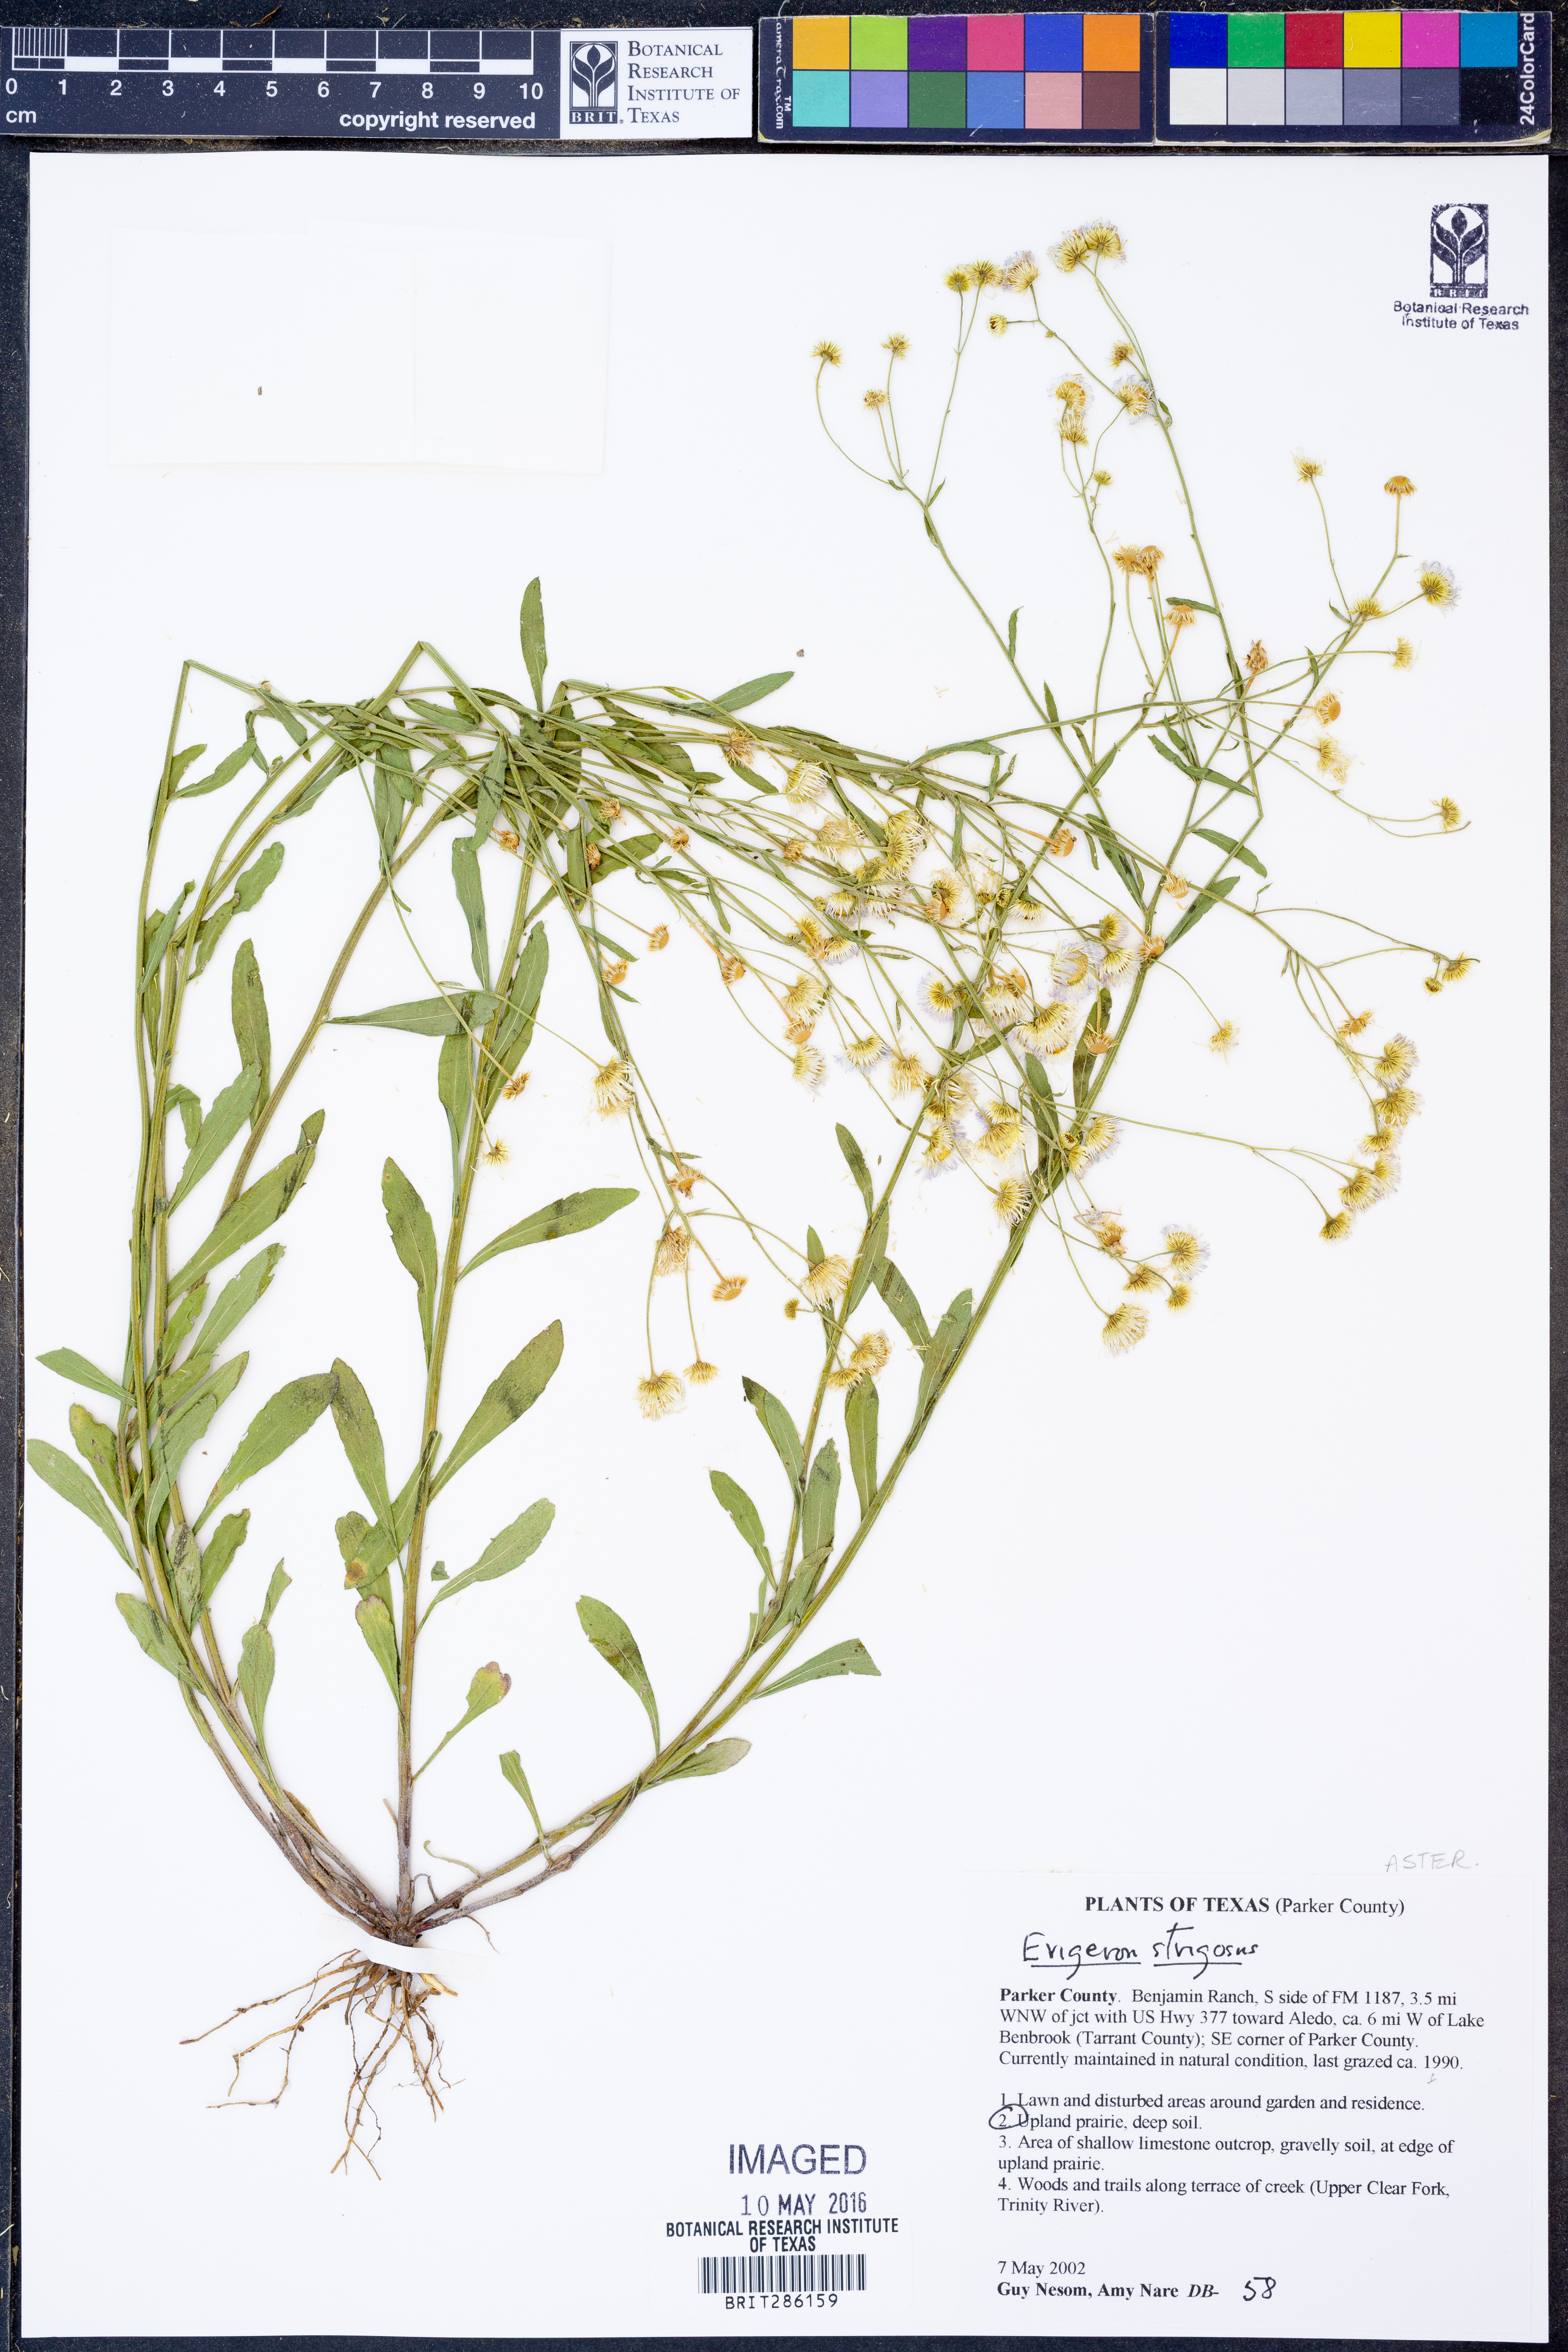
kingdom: Plantae
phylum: Tracheophyta
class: Magnoliopsida
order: Asterales
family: Asteraceae
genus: Erigeron
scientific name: Erigeron strigosus
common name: Common eastern fleabane
